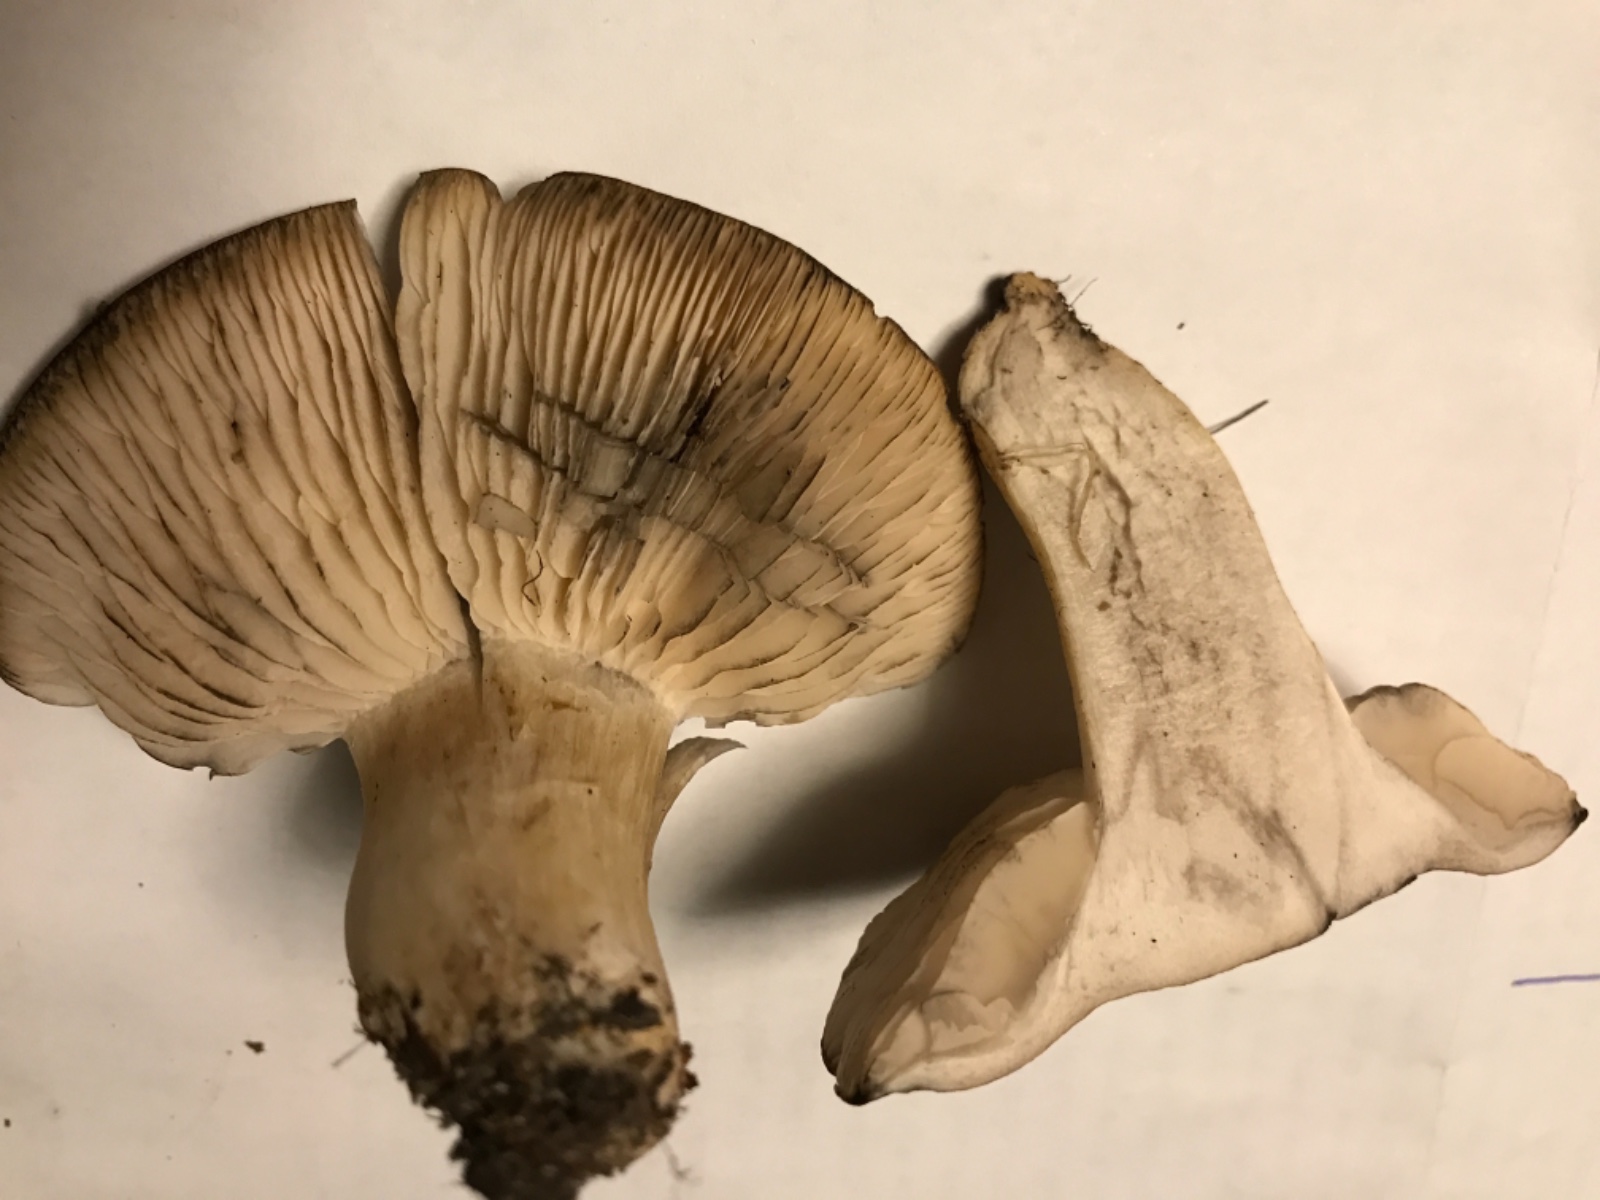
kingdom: Fungi
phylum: Basidiomycota
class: Agaricomycetes
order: Agaricales
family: Lyophyllaceae
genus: Lyophyllum
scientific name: Lyophyllum paelochroum
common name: blånende gråblad
